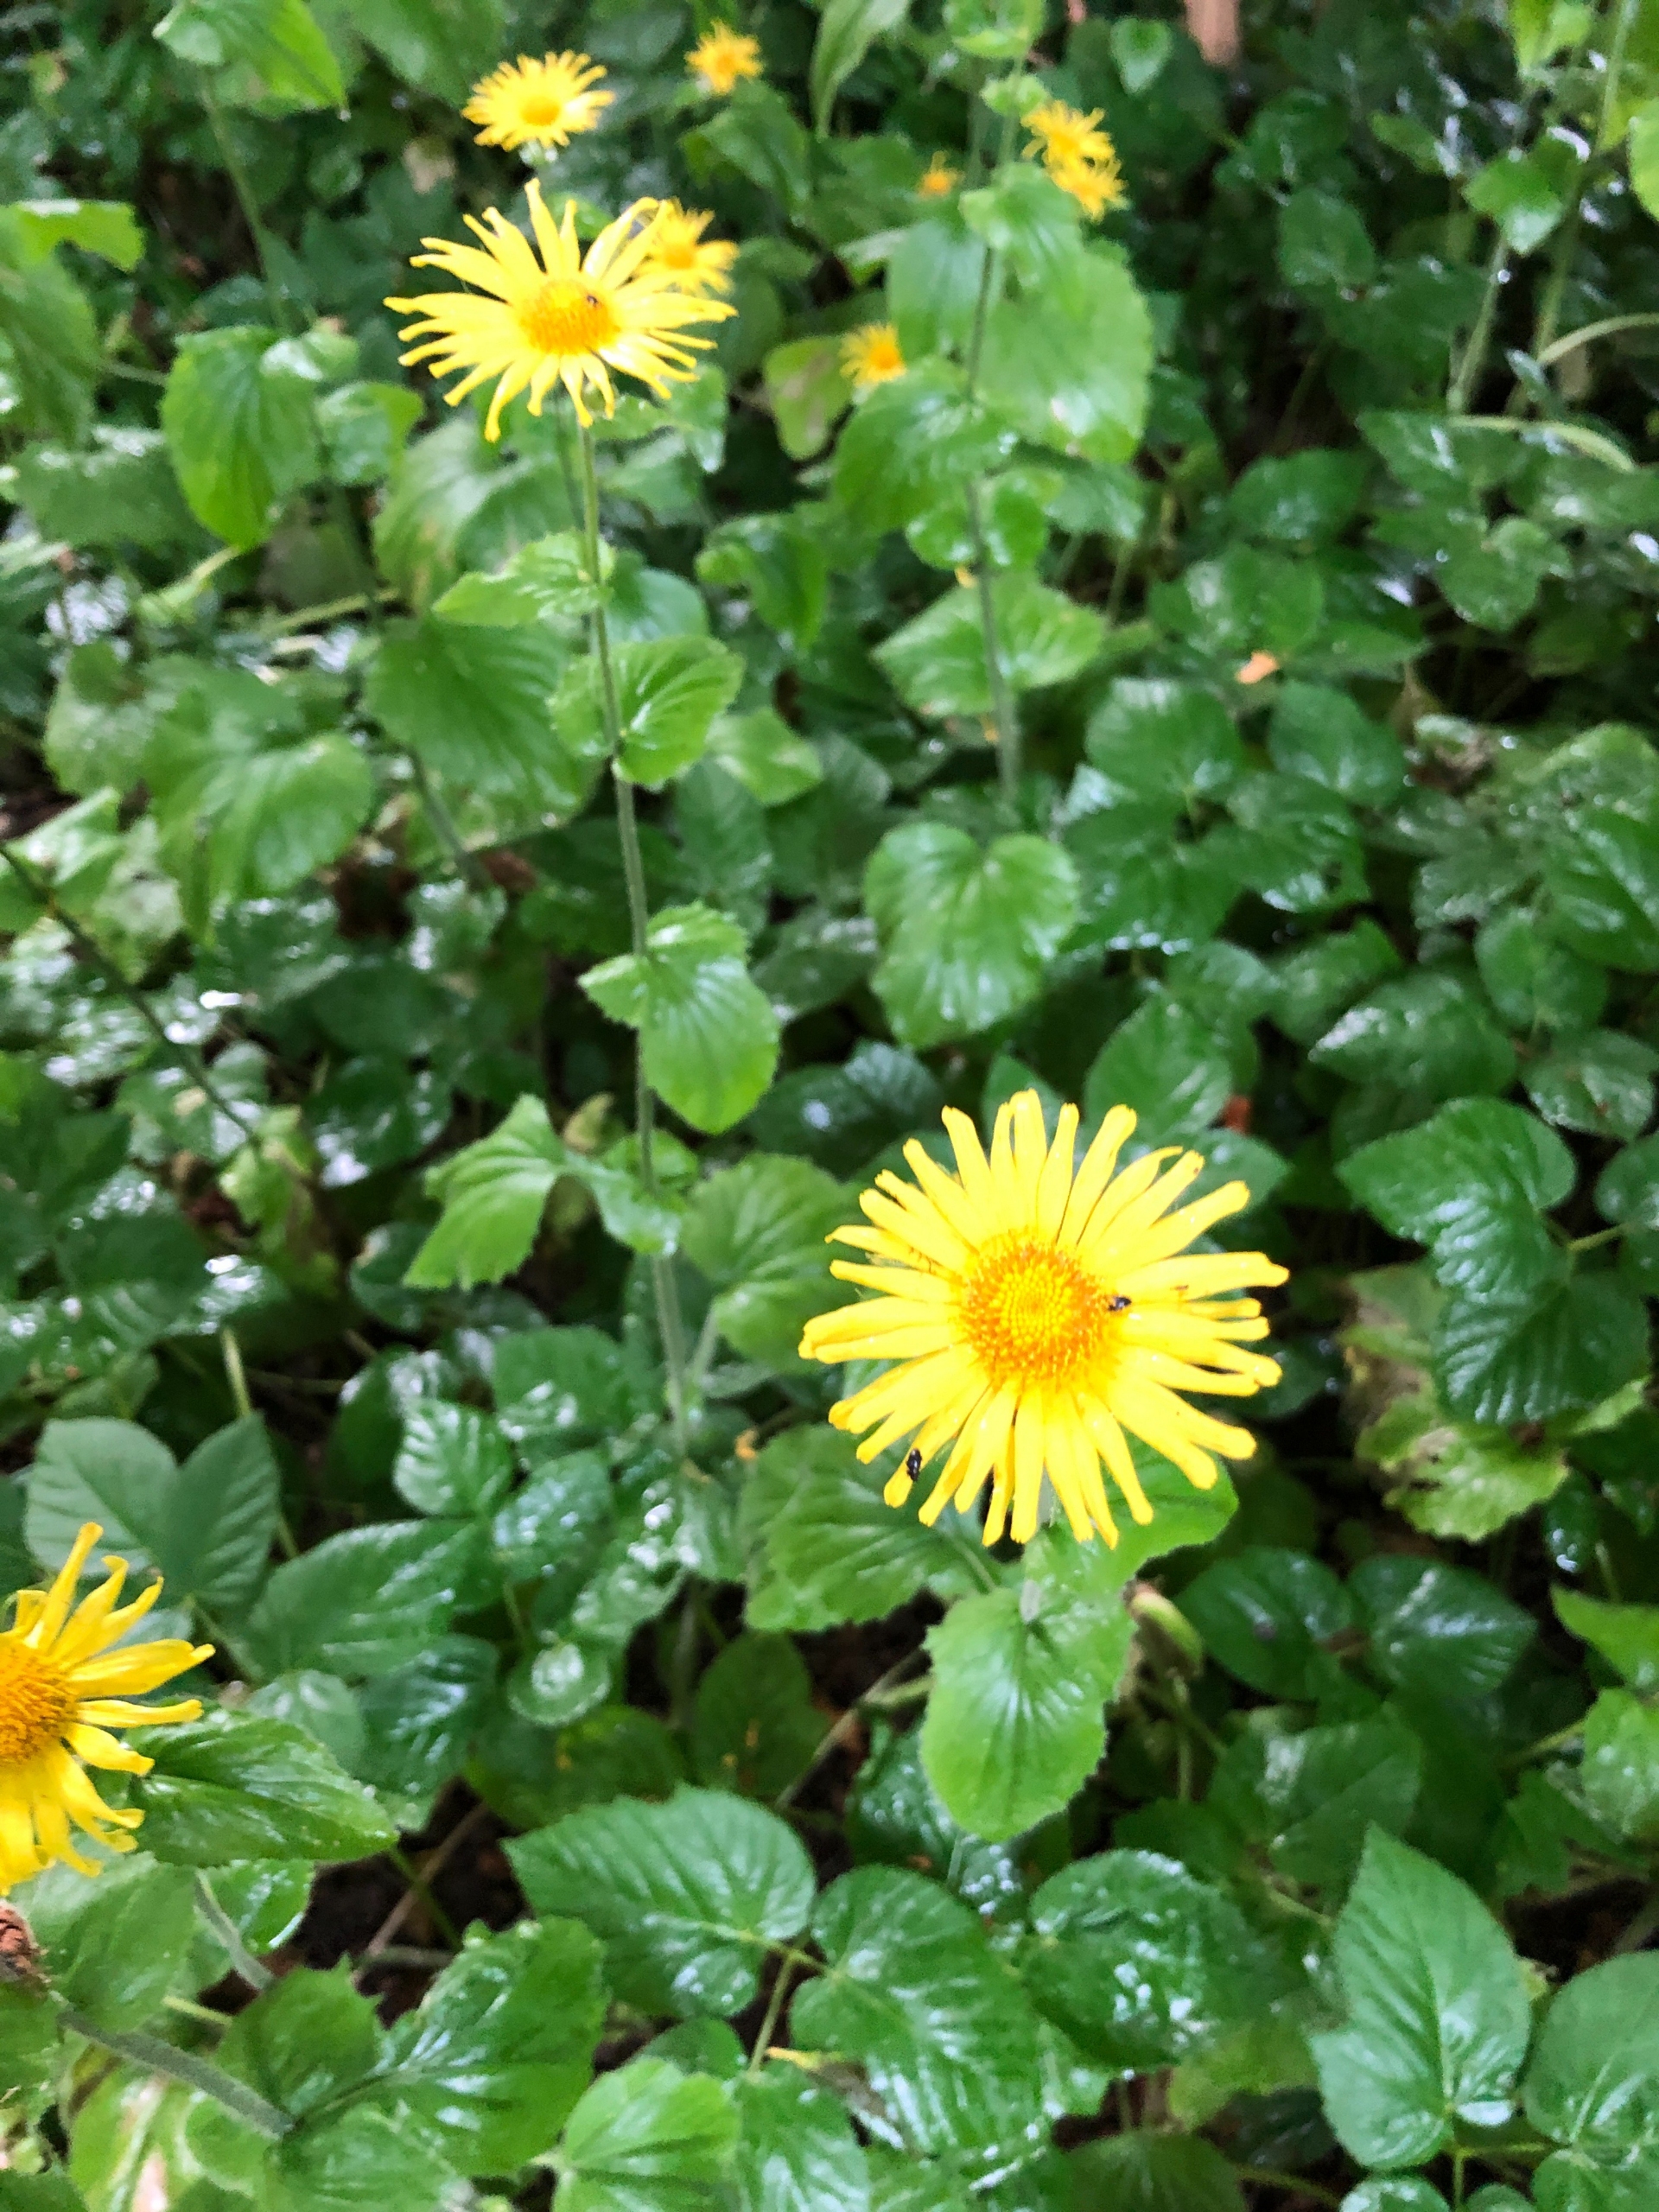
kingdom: Plantae
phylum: Tracheophyta
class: Magnoliopsida
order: Asterales
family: Asteraceae
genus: Doronicum
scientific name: Doronicum columnae
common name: Tue-gemserod
